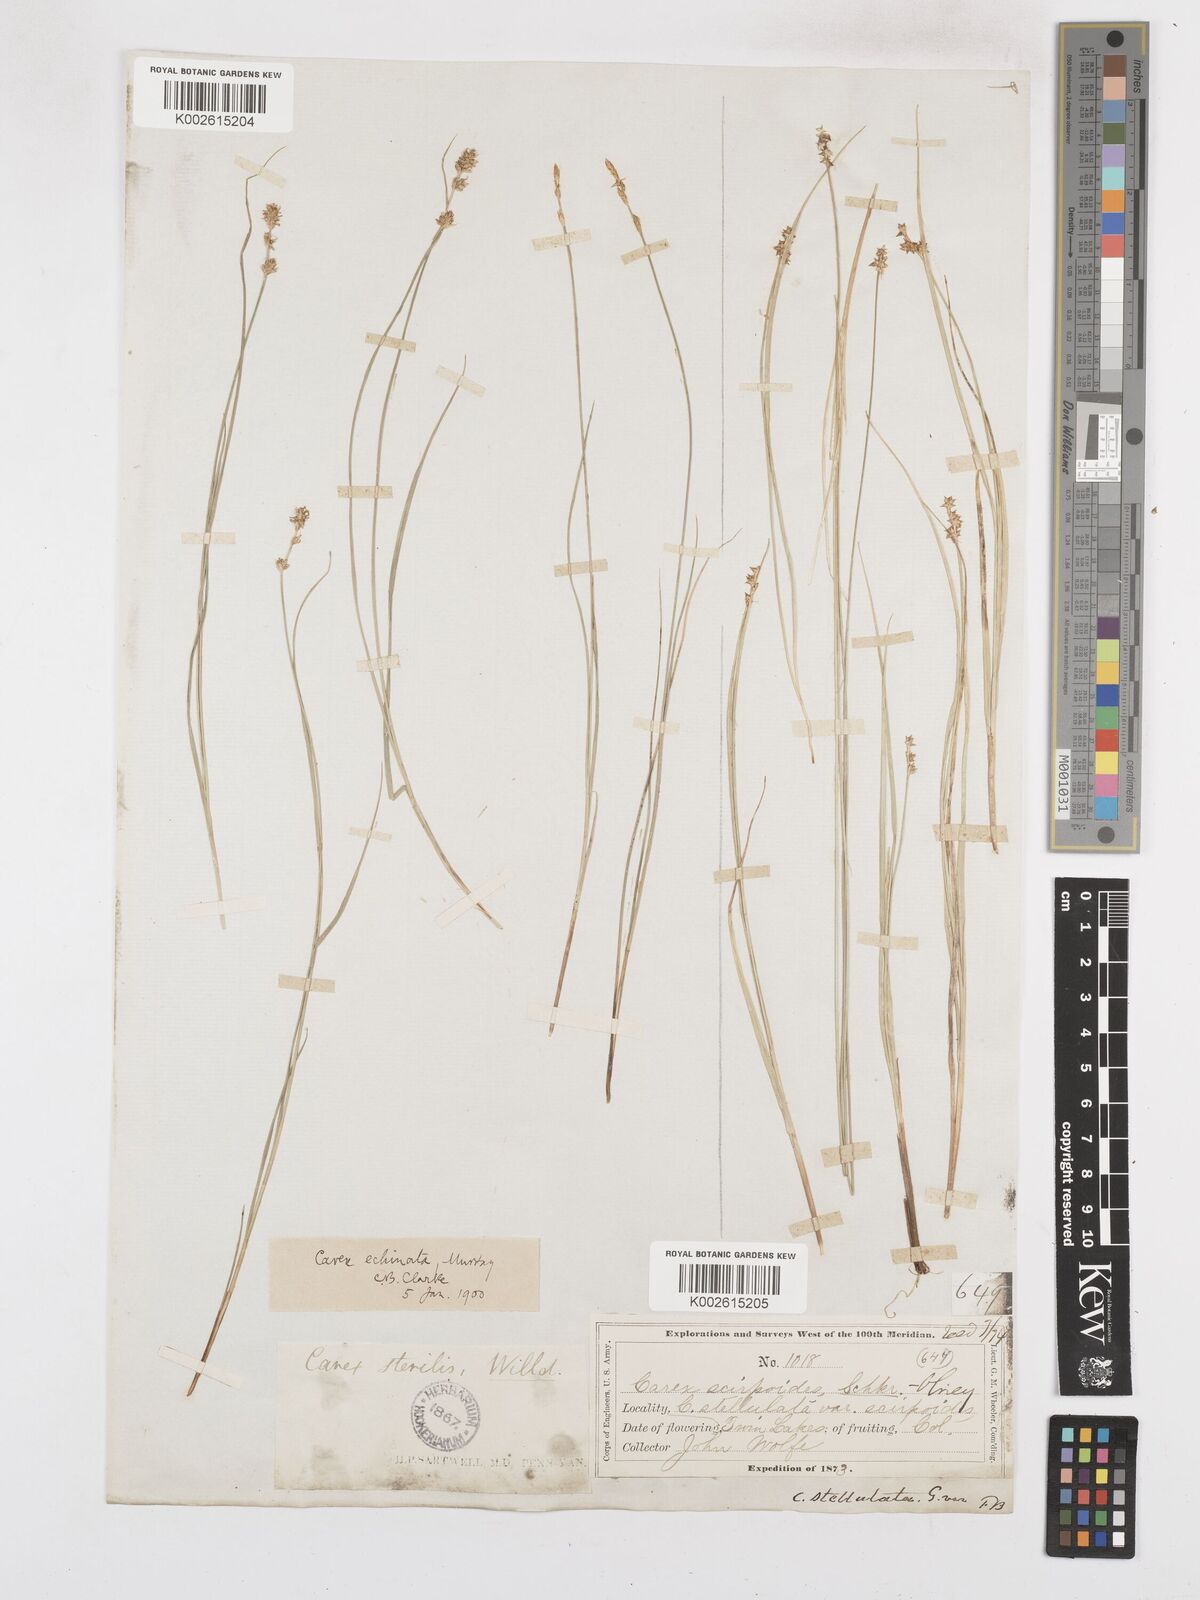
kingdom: Plantae
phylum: Tracheophyta
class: Liliopsida
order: Poales
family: Cyperaceae
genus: Carex
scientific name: Carex echinata
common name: Star sedge
